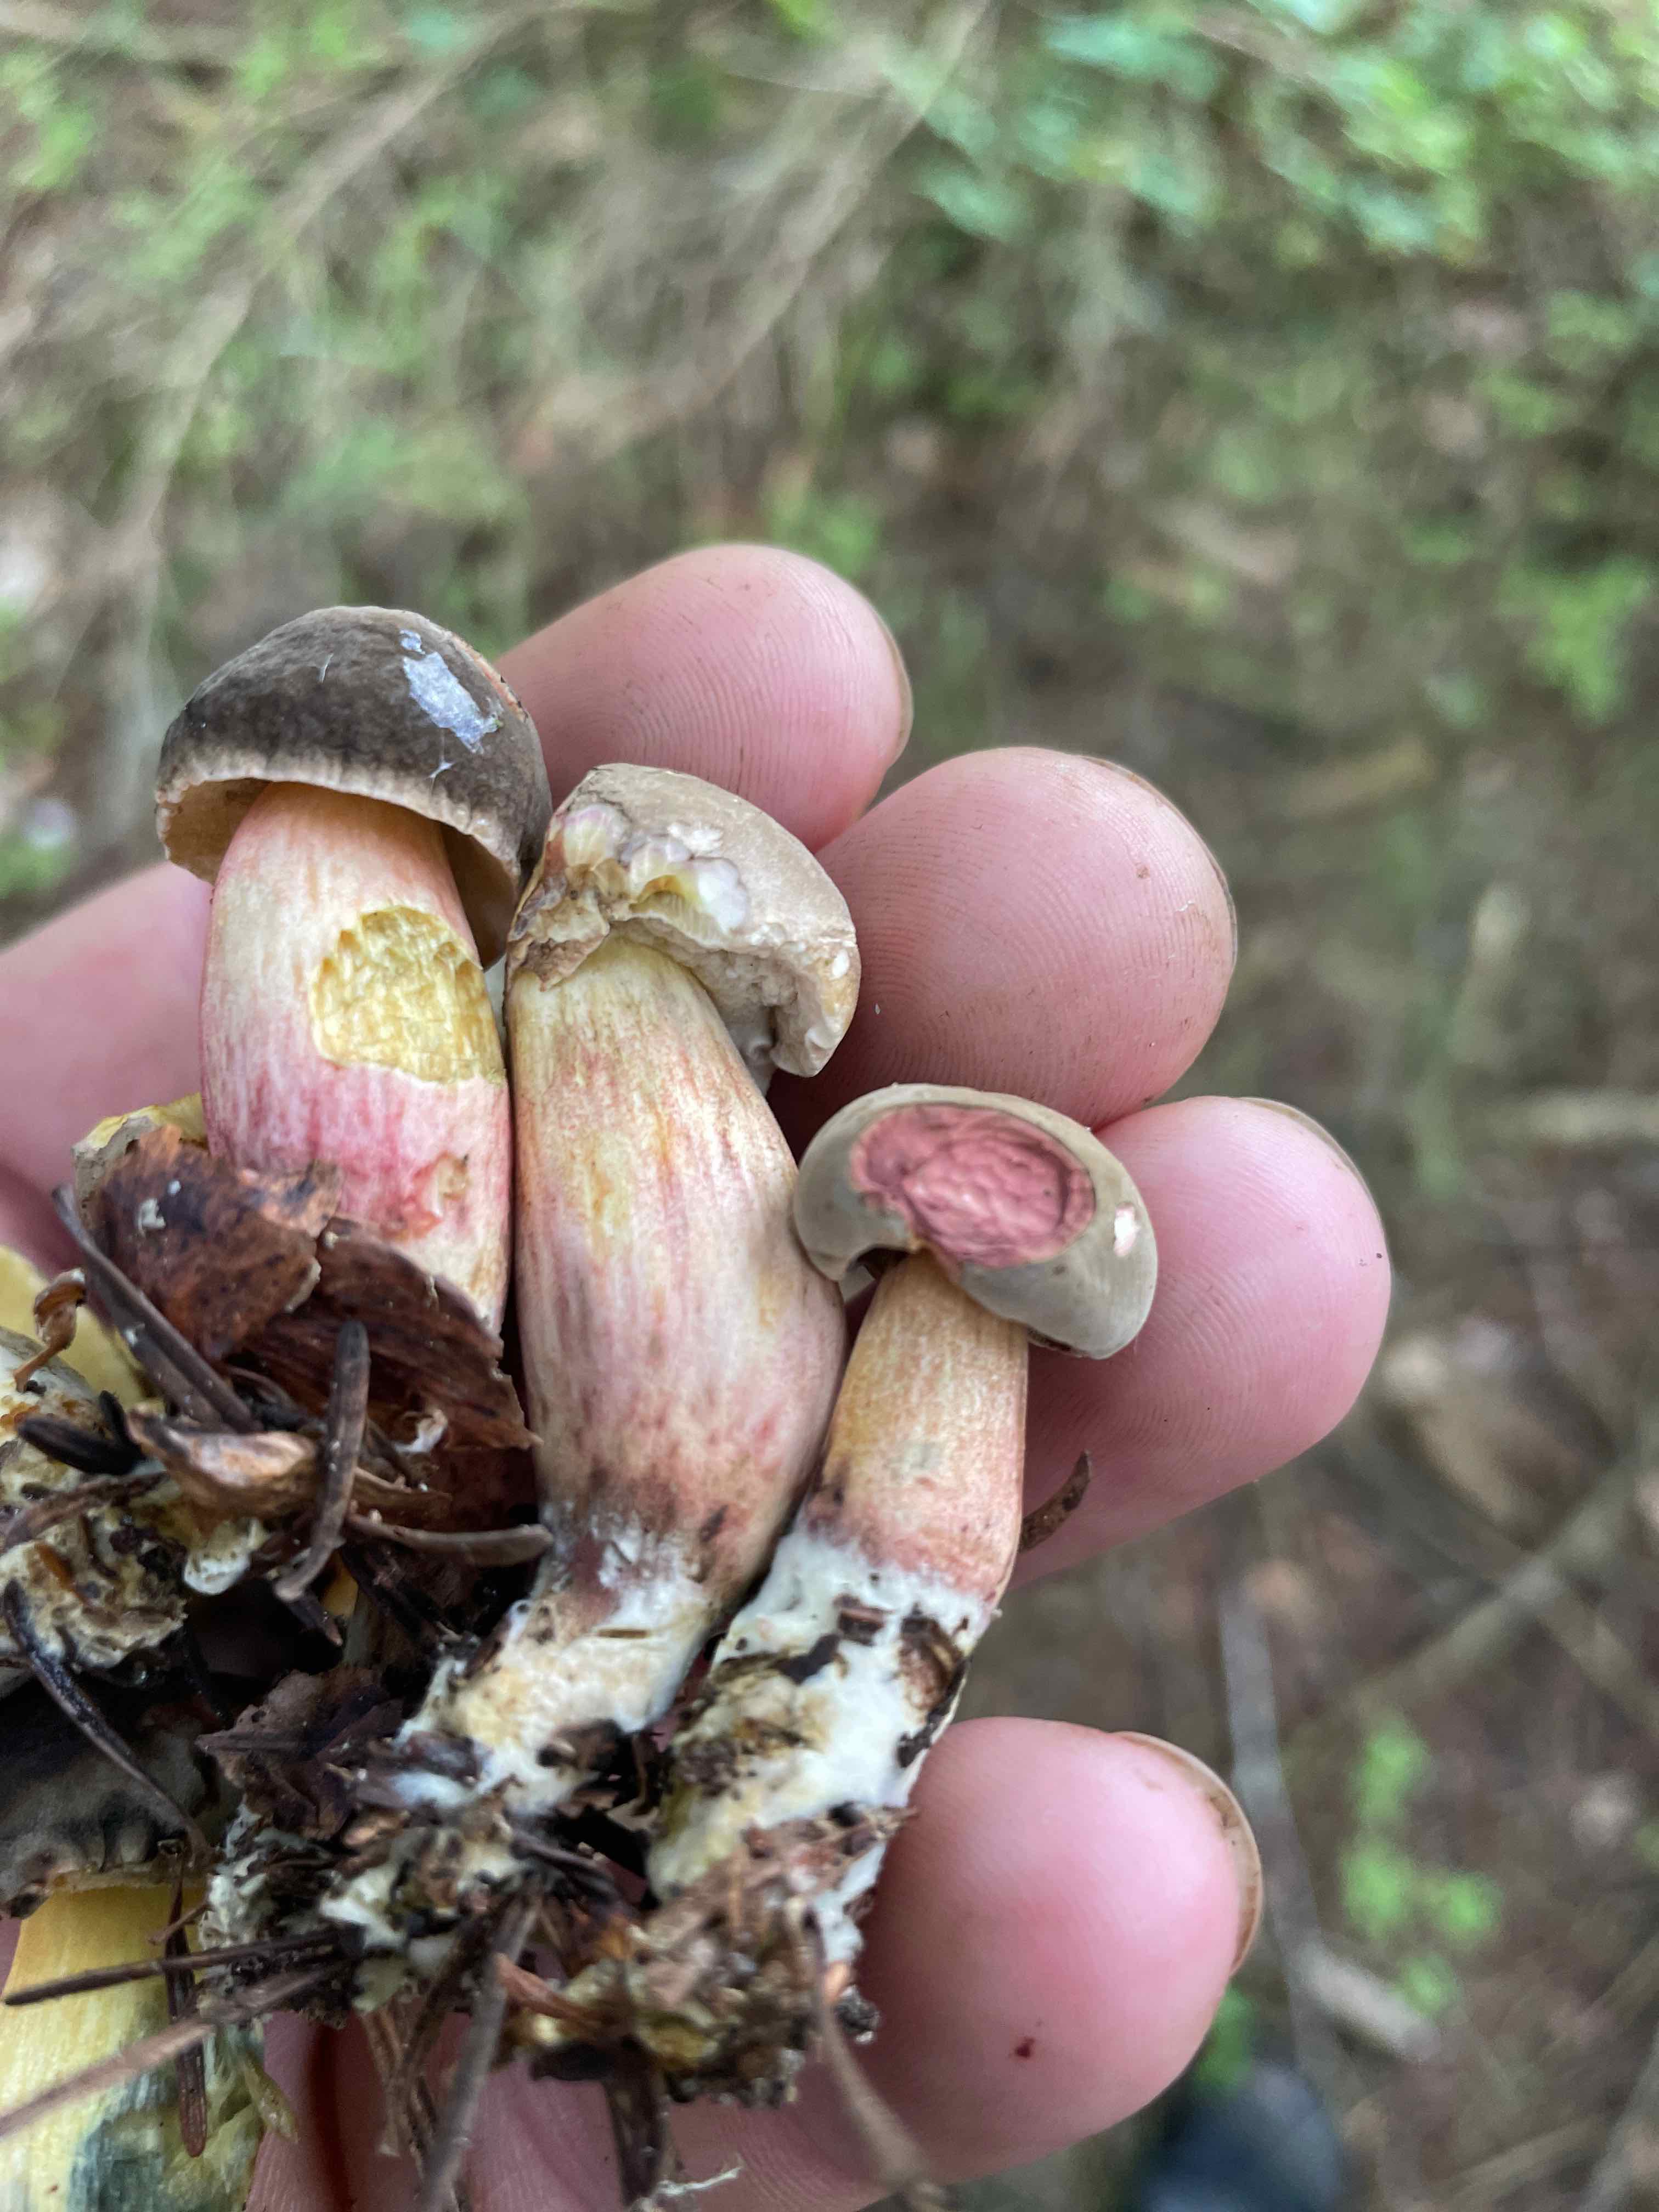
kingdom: Fungi
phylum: Basidiomycota
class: Agaricomycetes
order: Boletales
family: Boletaceae
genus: Xerocomellus
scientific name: Xerocomellus
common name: dværgrørhat
